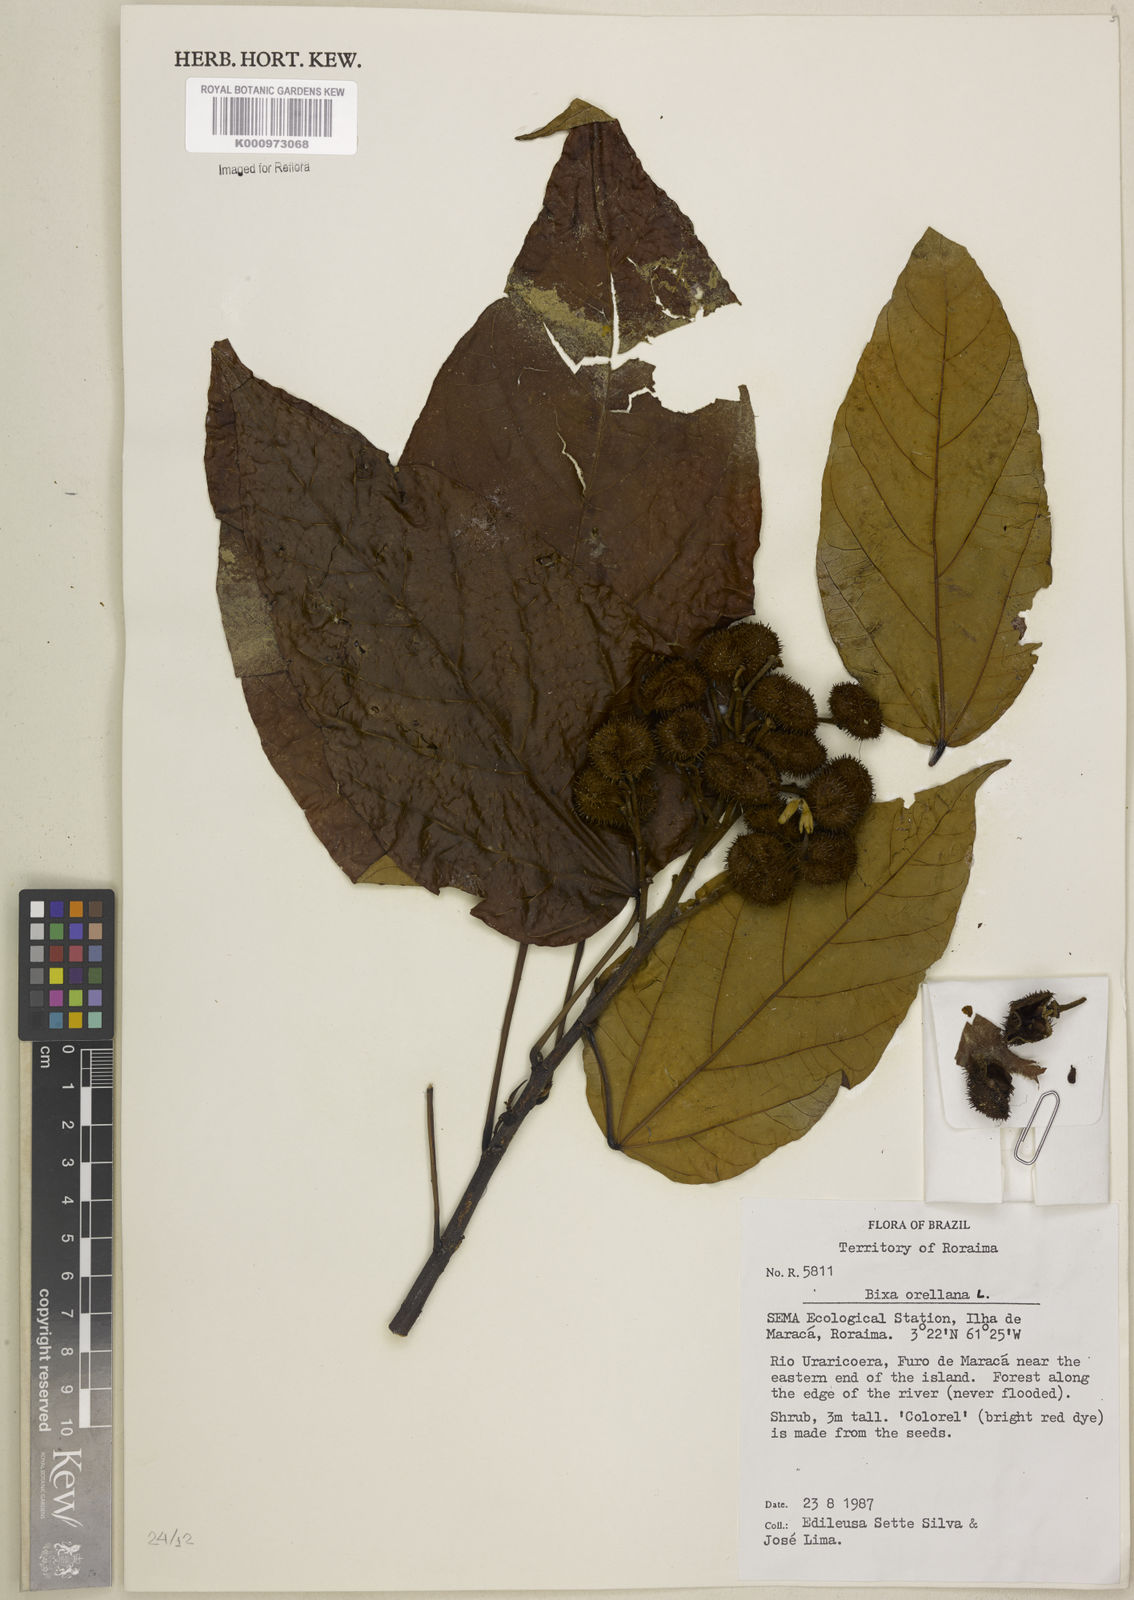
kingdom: Plantae
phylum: Tracheophyta
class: Magnoliopsida
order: Malvales
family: Bixaceae
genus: Bixa
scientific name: Bixa orellana
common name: Lipsticktree
